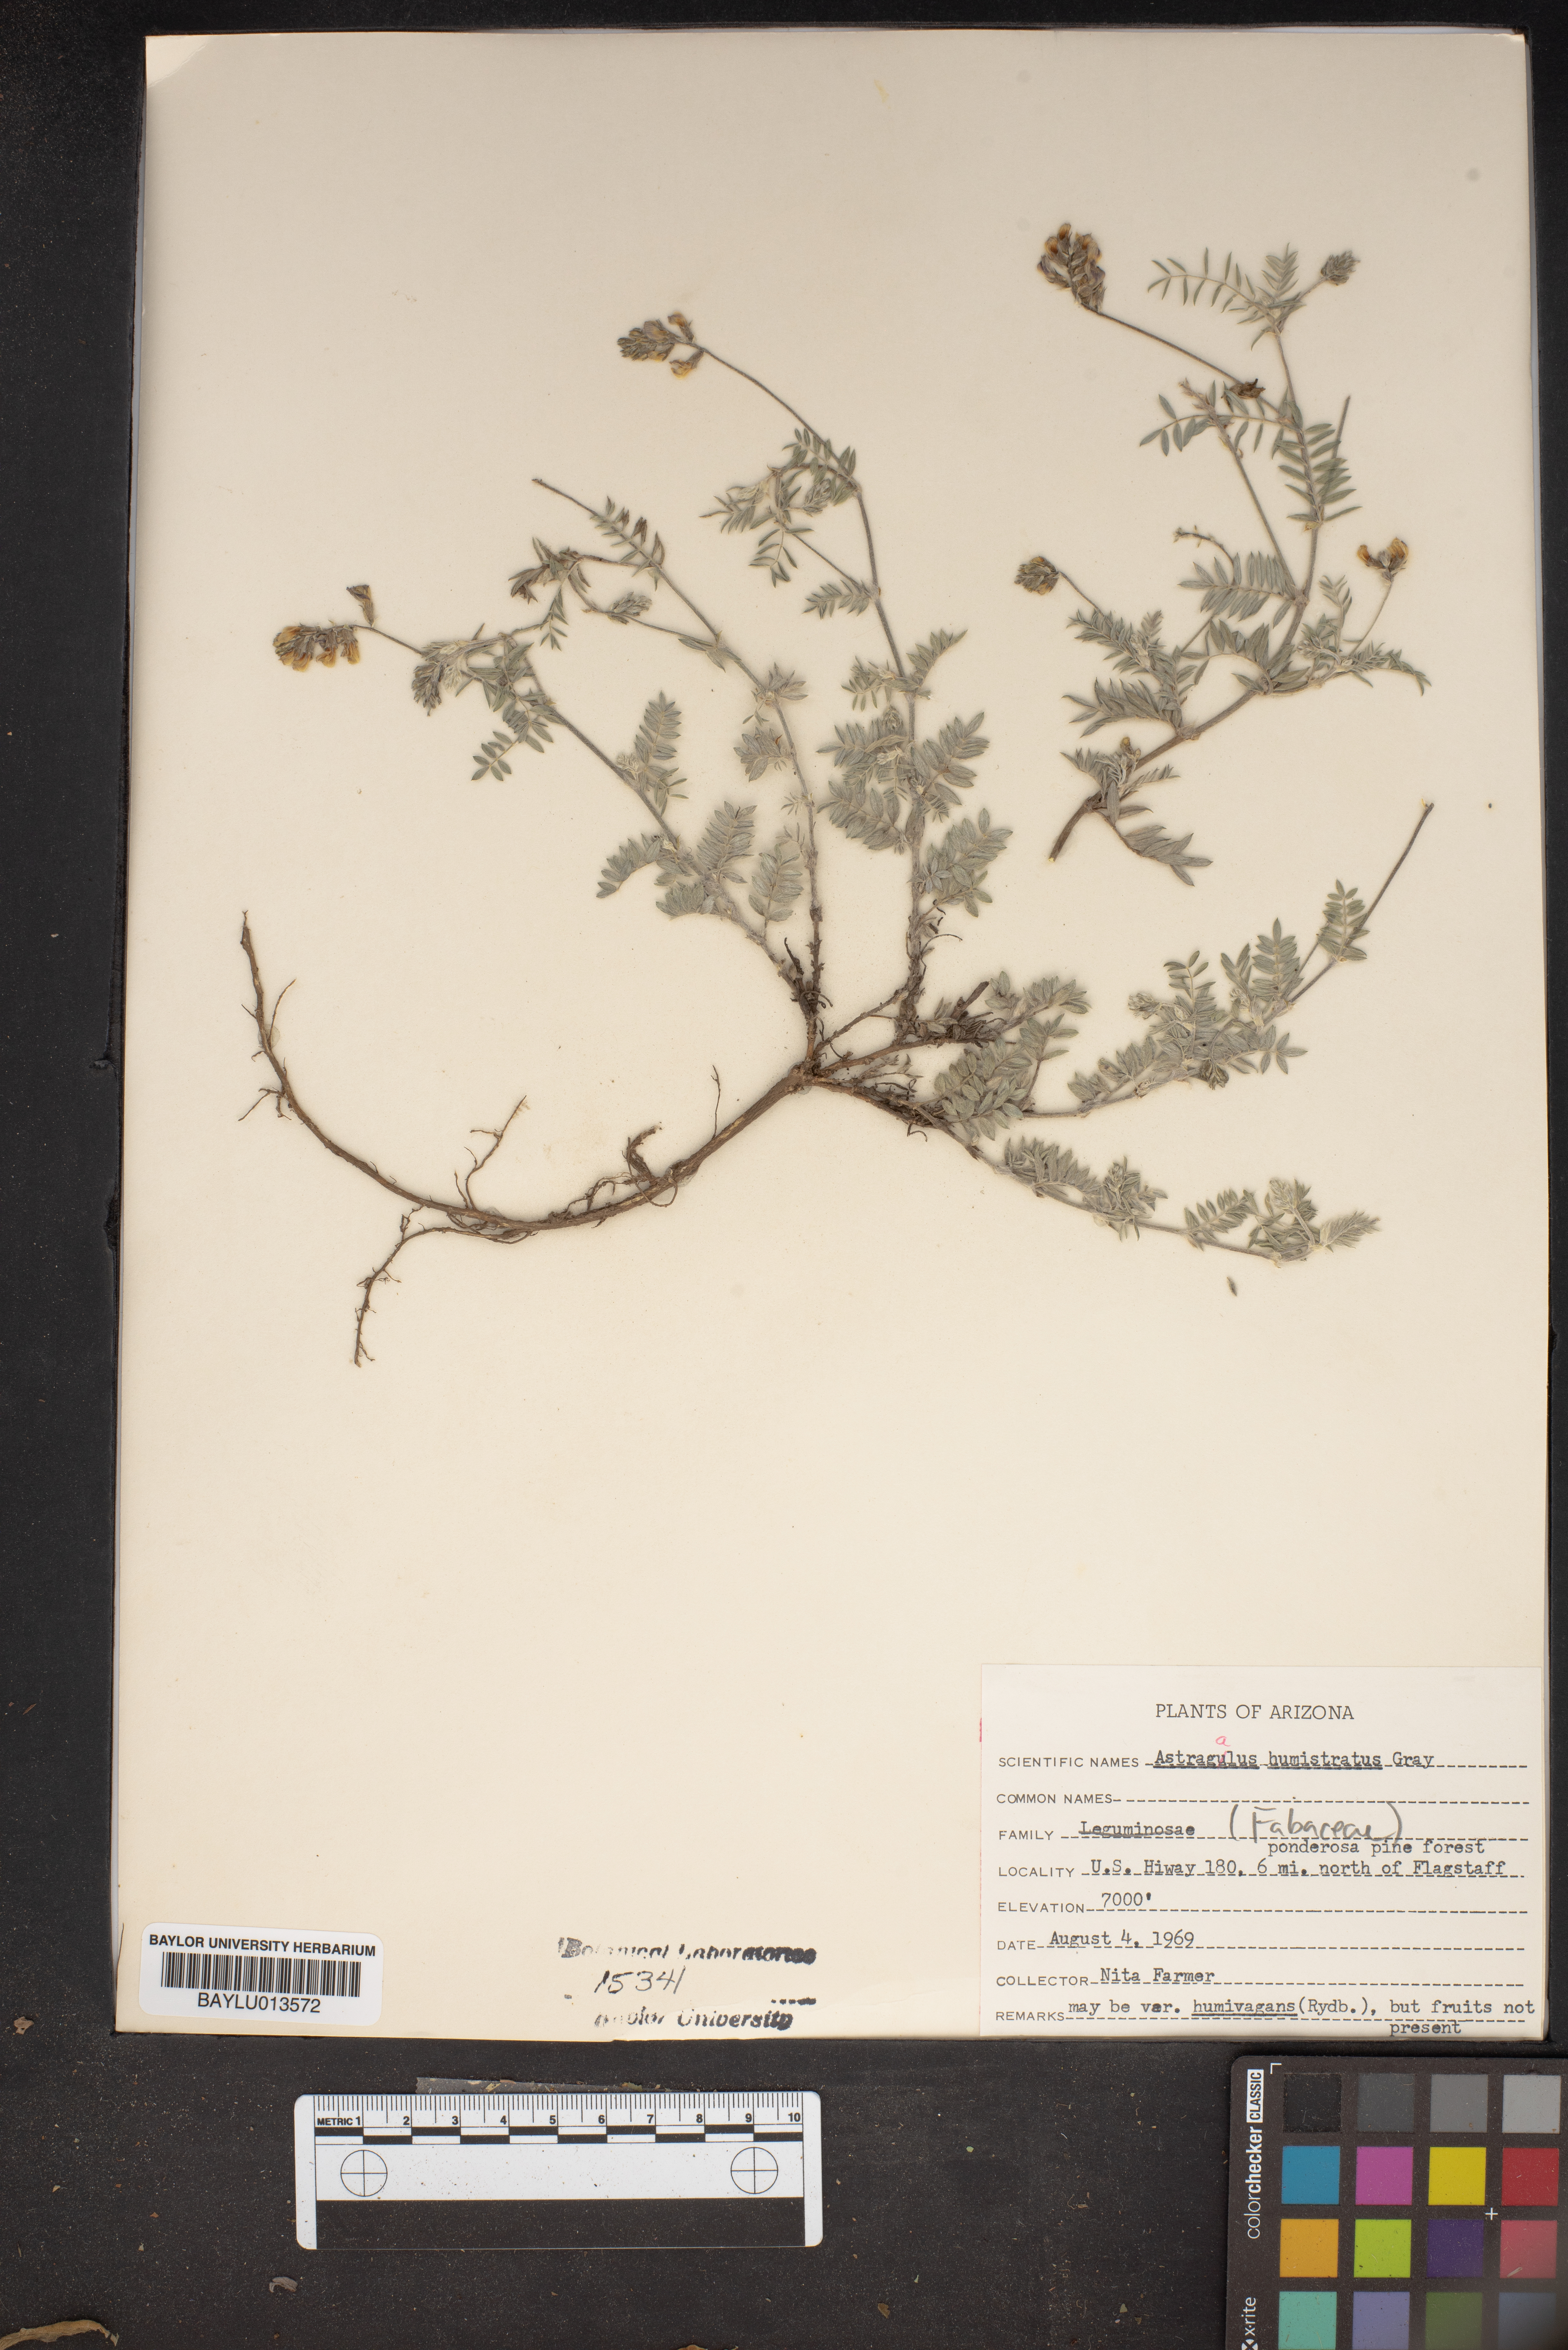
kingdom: Plantae
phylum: Tracheophyta
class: Magnoliopsida
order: Fabales
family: Fabaceae
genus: Astragalus
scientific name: Astragalus humistratus
